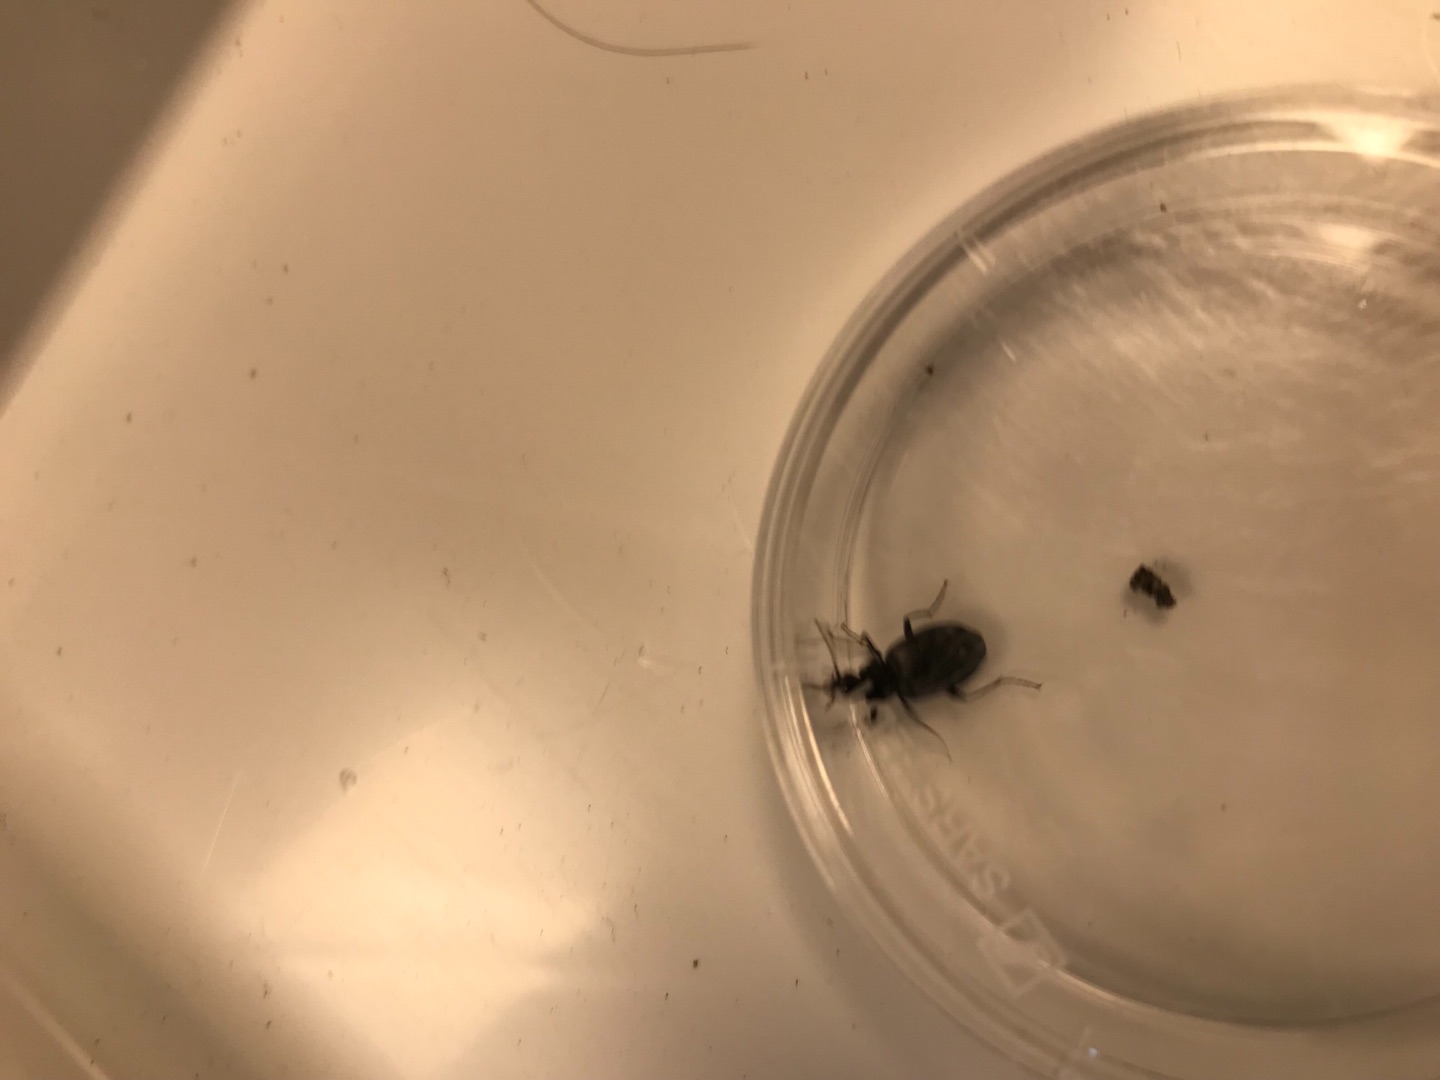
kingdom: Animalia
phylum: Arthropoda
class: Insecta
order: Coleoptera
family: Carabidae
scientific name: Carabidae
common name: Løbebiller
